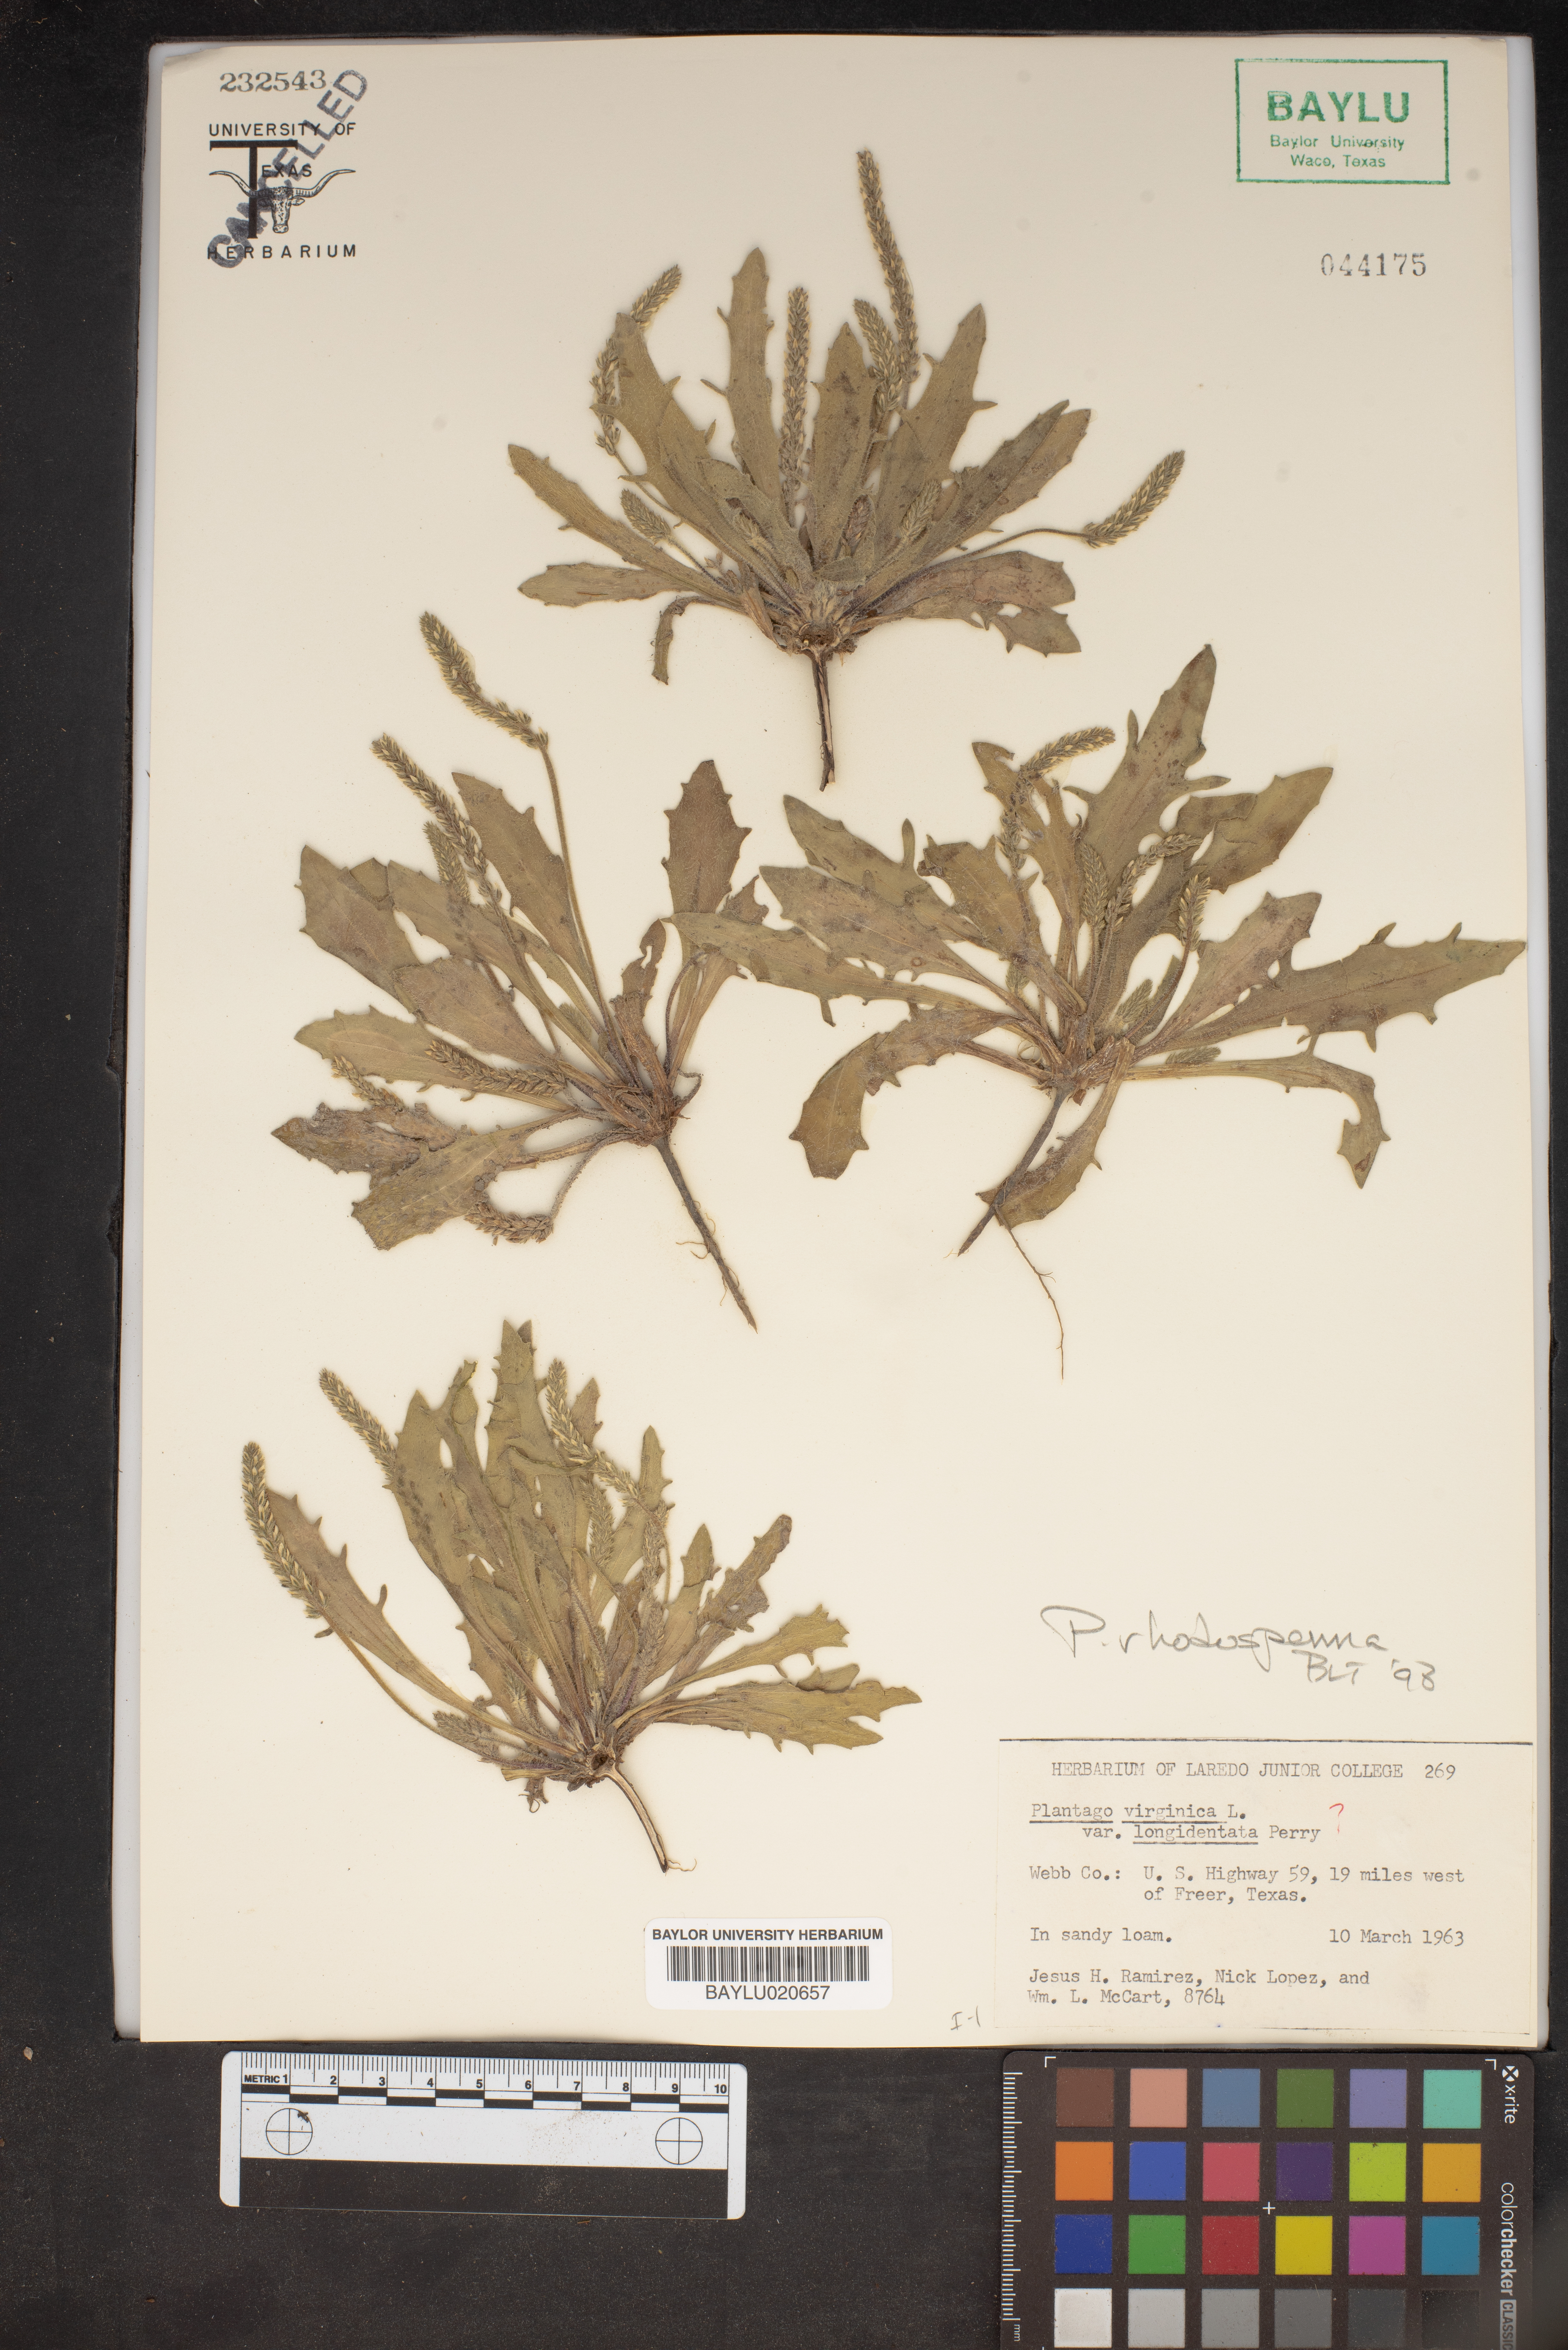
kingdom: Plantae
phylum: Tracheophyta
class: Magnoliopsida
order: Lamiales
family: Plantaginaceae
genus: Plantago
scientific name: Plantago rhodosperma
